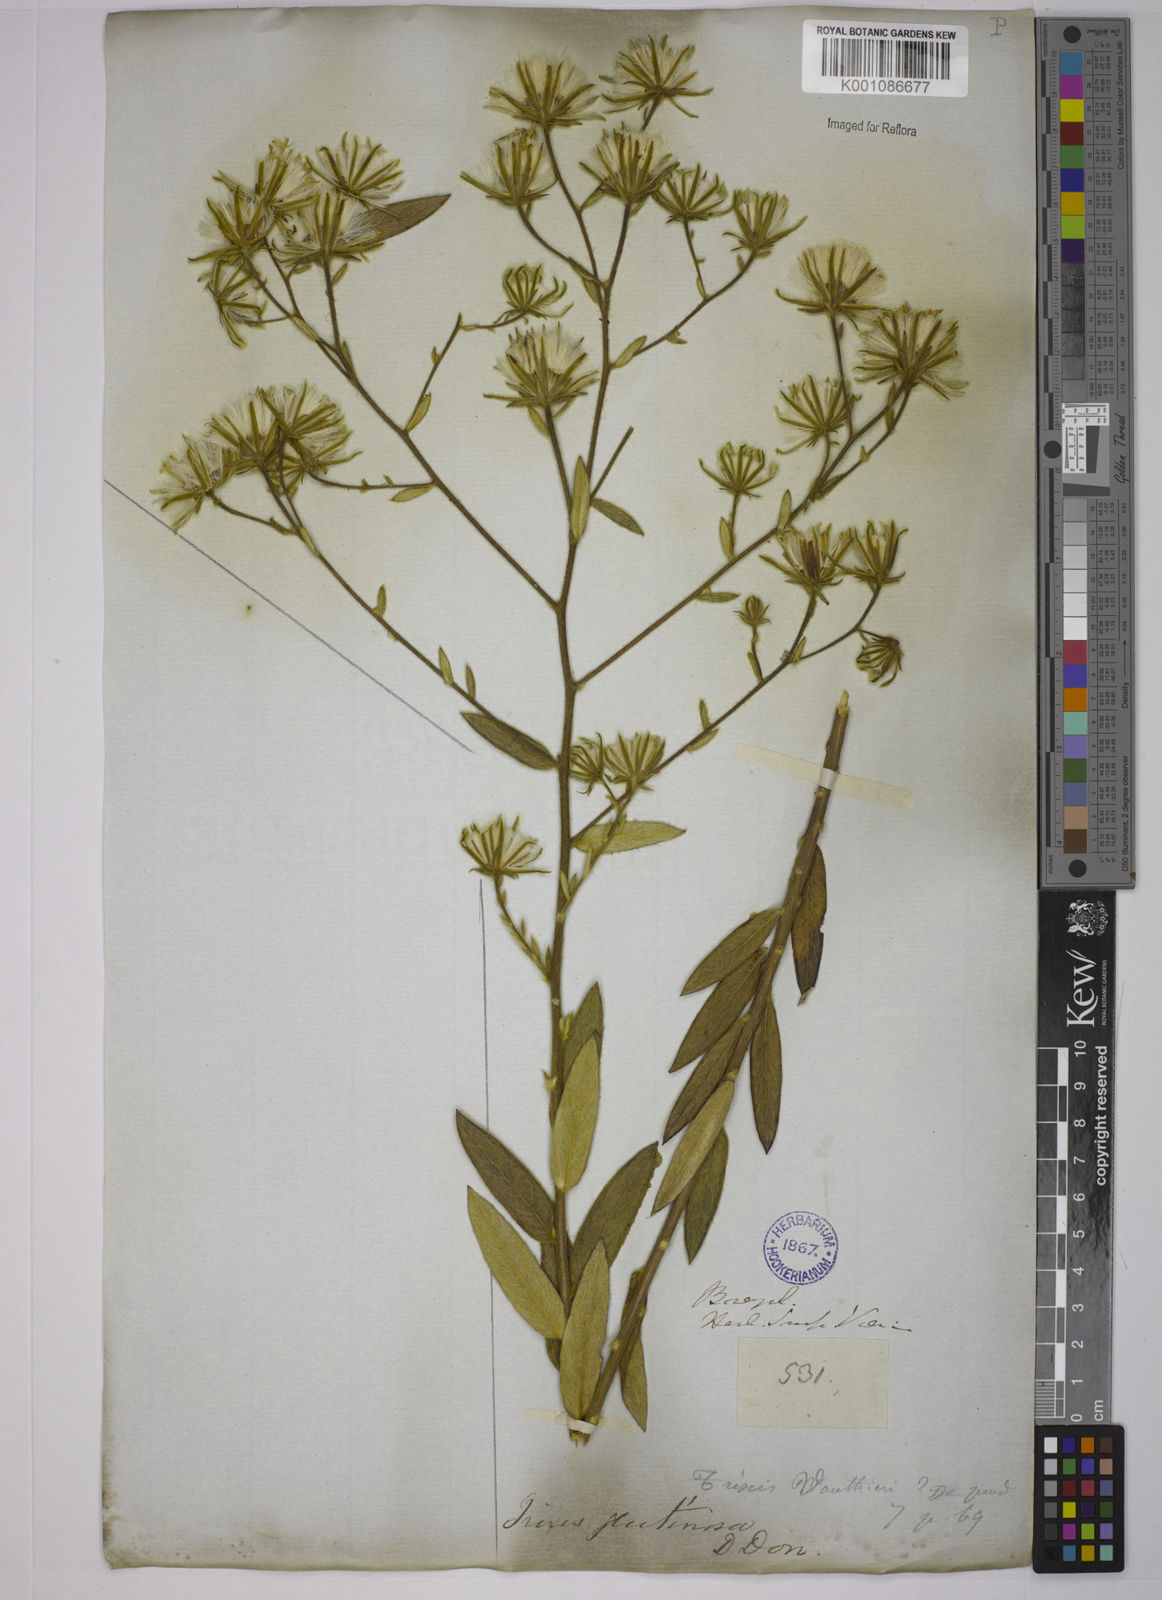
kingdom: Plantae
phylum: Tracheophyta
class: Magnoliopsida
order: Asterales
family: Asteraceae
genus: Trixis
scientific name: Trixis glutinosa
